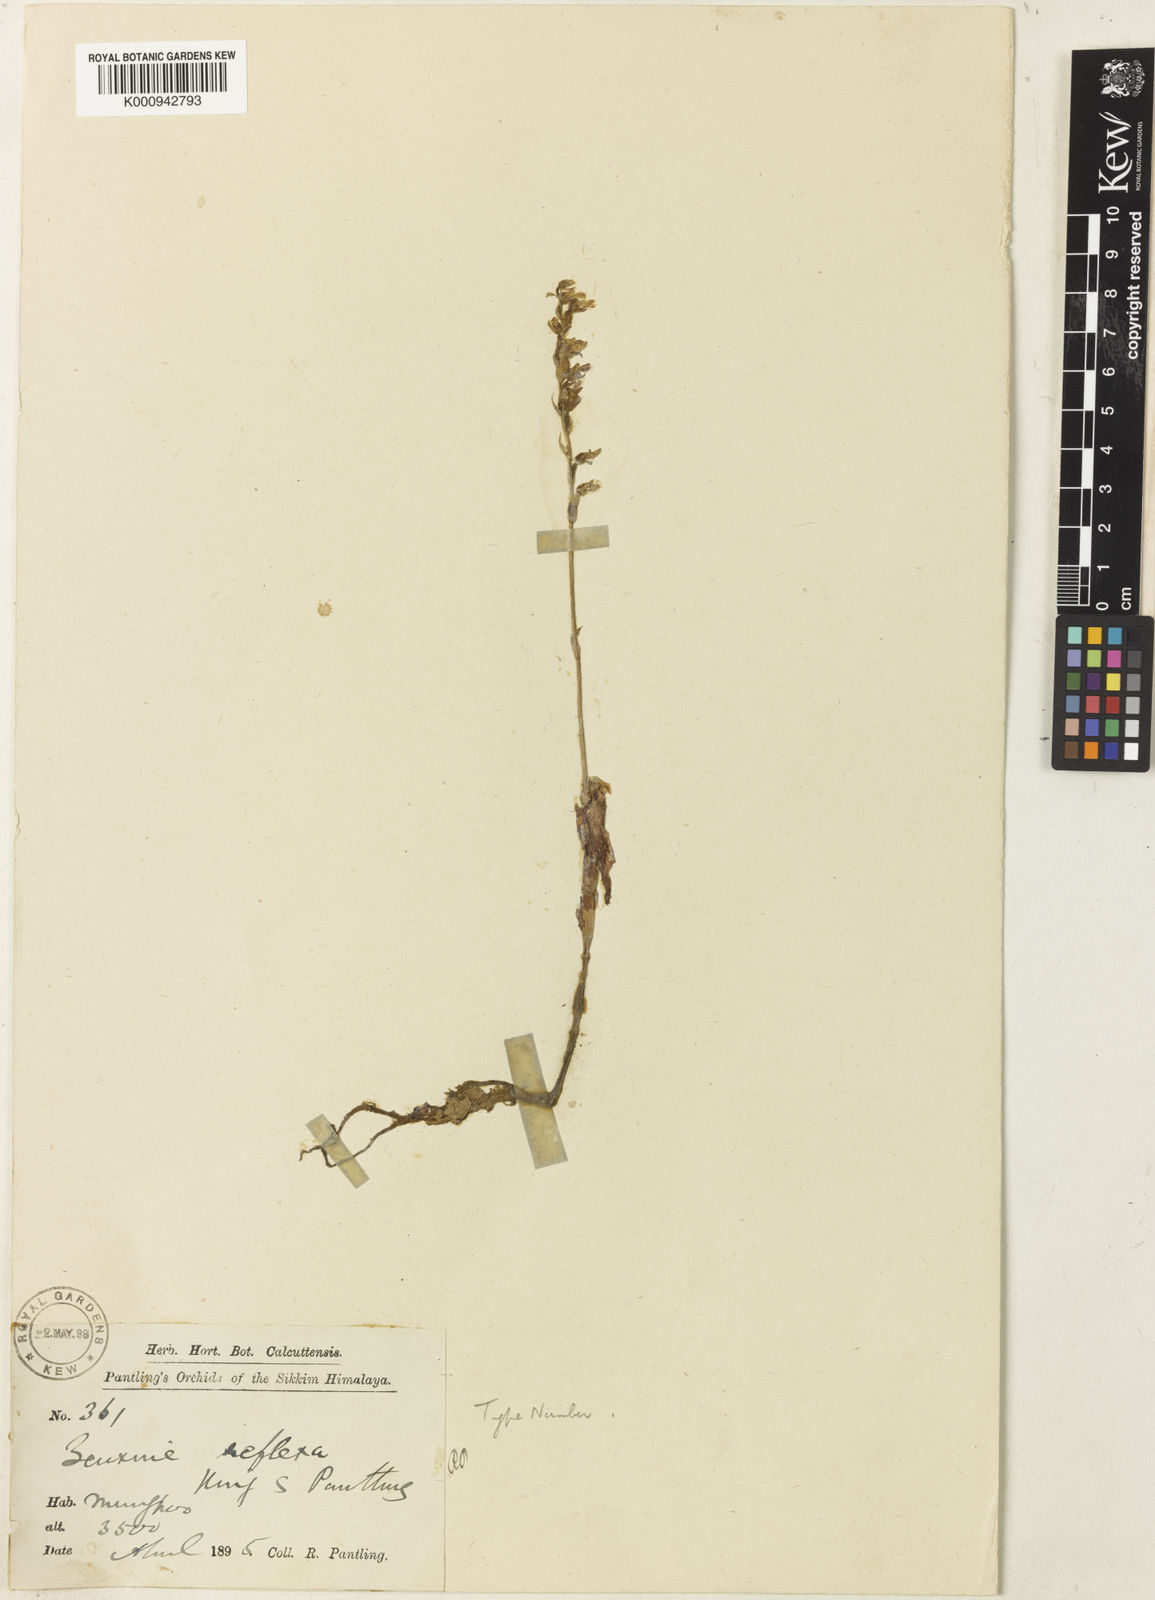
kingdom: Plantae
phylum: Tracheophyta
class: Liliopsida
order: Asparagales
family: Orchidaceae
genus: Zeuxine
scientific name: Zeuxine reflexa
